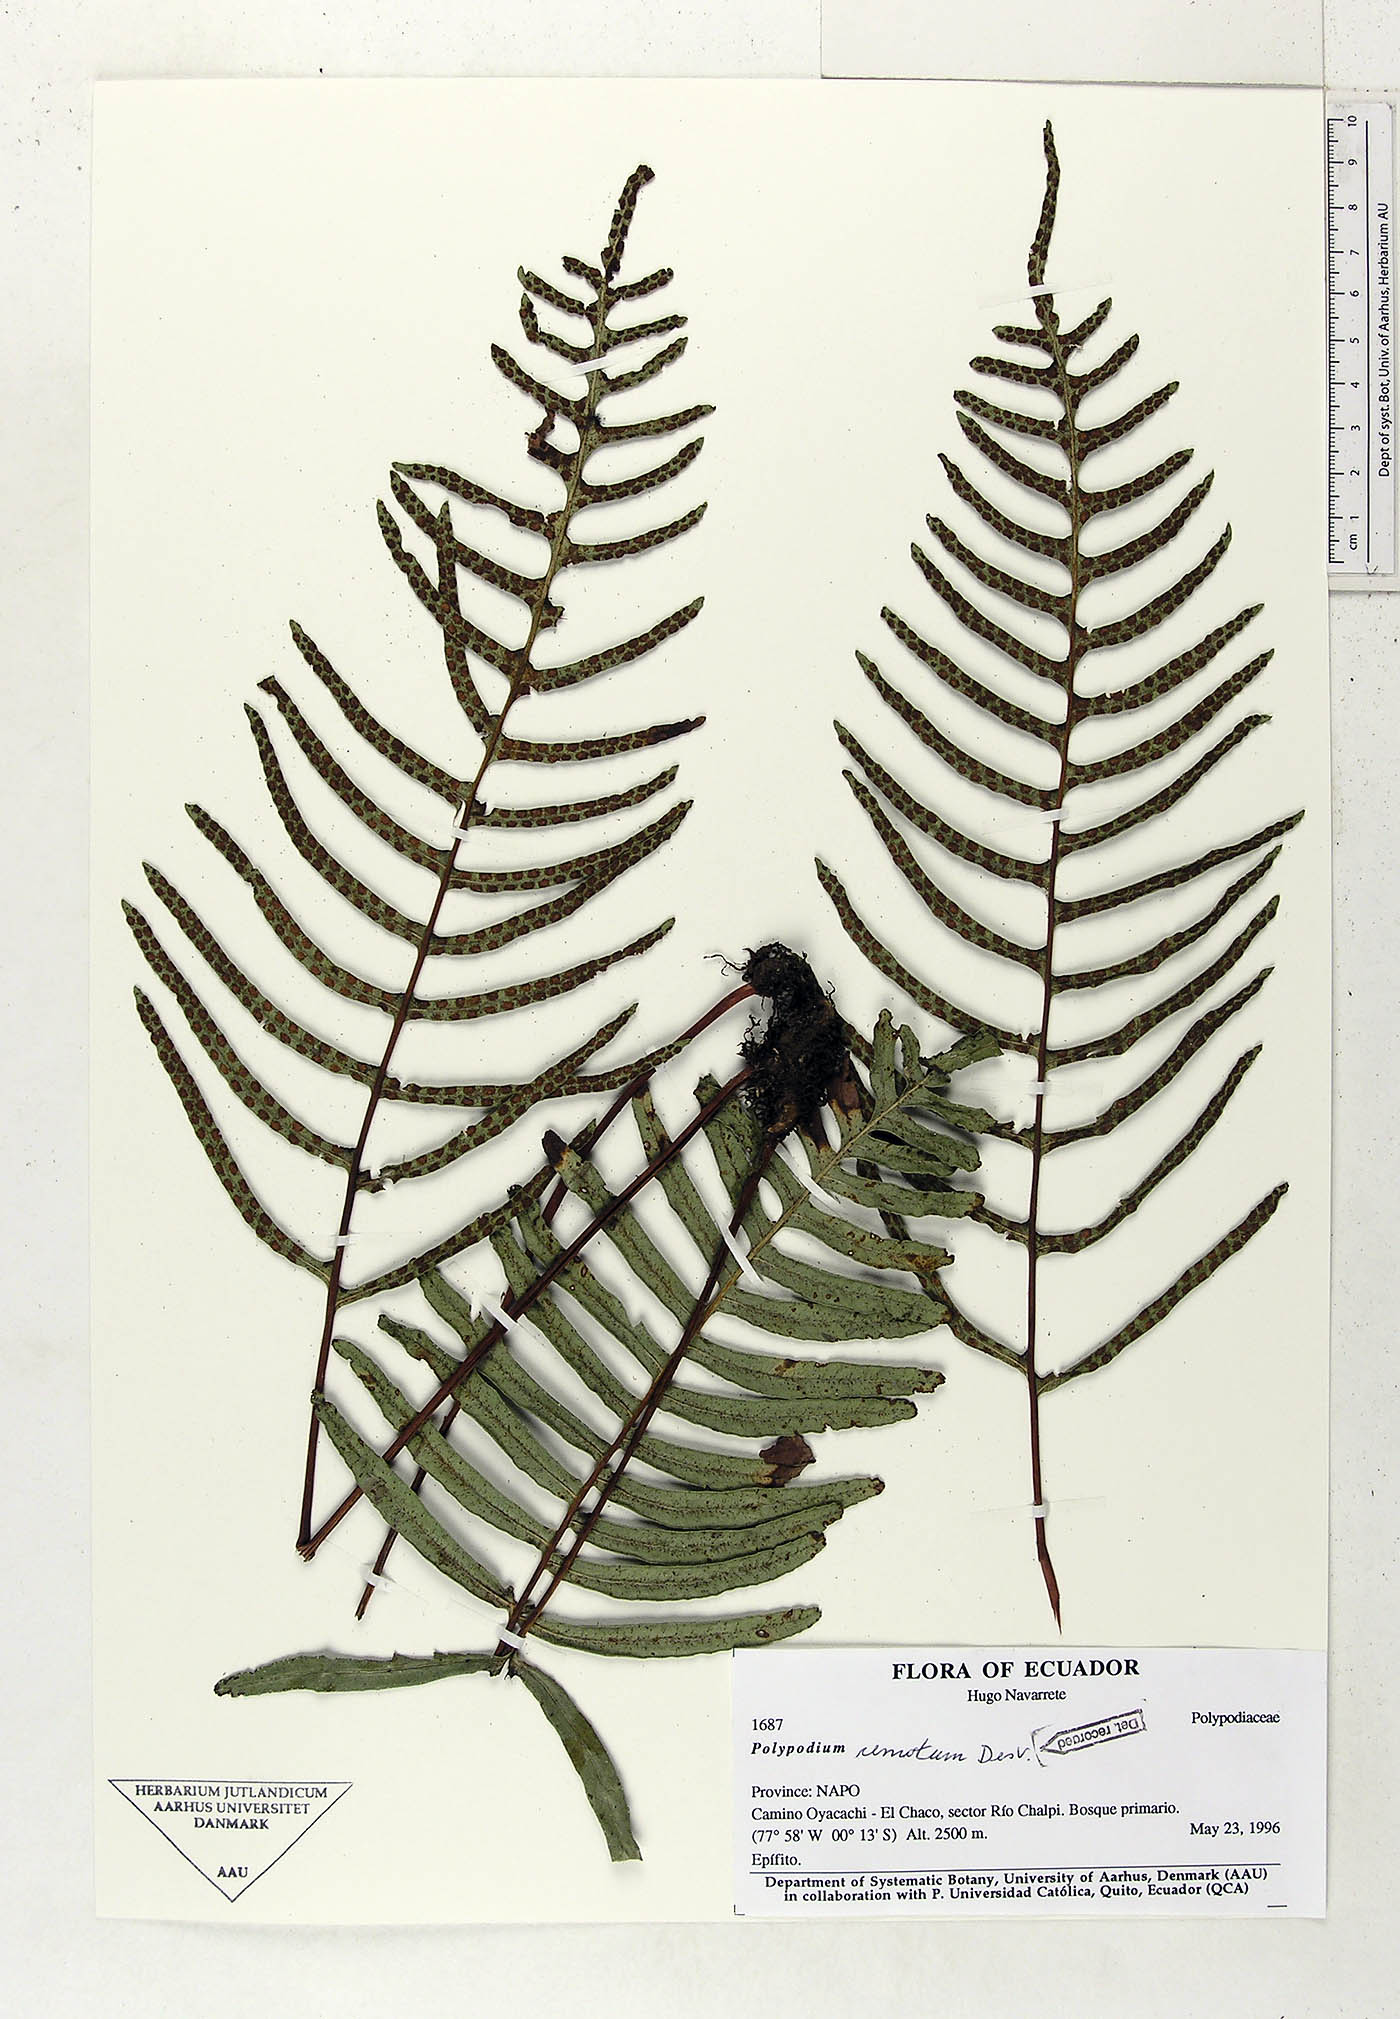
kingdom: Plantae
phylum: Tracheophyta
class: Polypodiopsida
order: Polypodiales
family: Polypodiaceae
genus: Pleopeltis
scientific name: Pleopeltis remota
